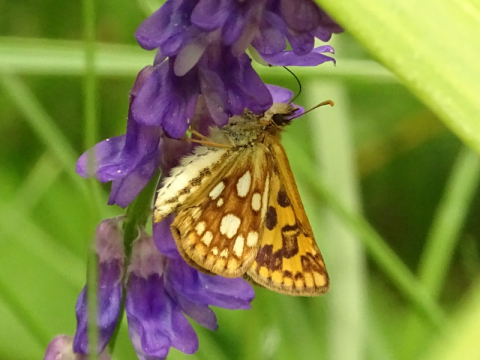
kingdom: Animalia
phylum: Arthropoda
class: Insecta
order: Lepidoptera
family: Hesperiidae
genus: Carterocephalus
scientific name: Carterocephalus palaemon
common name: Chequered Skipper
